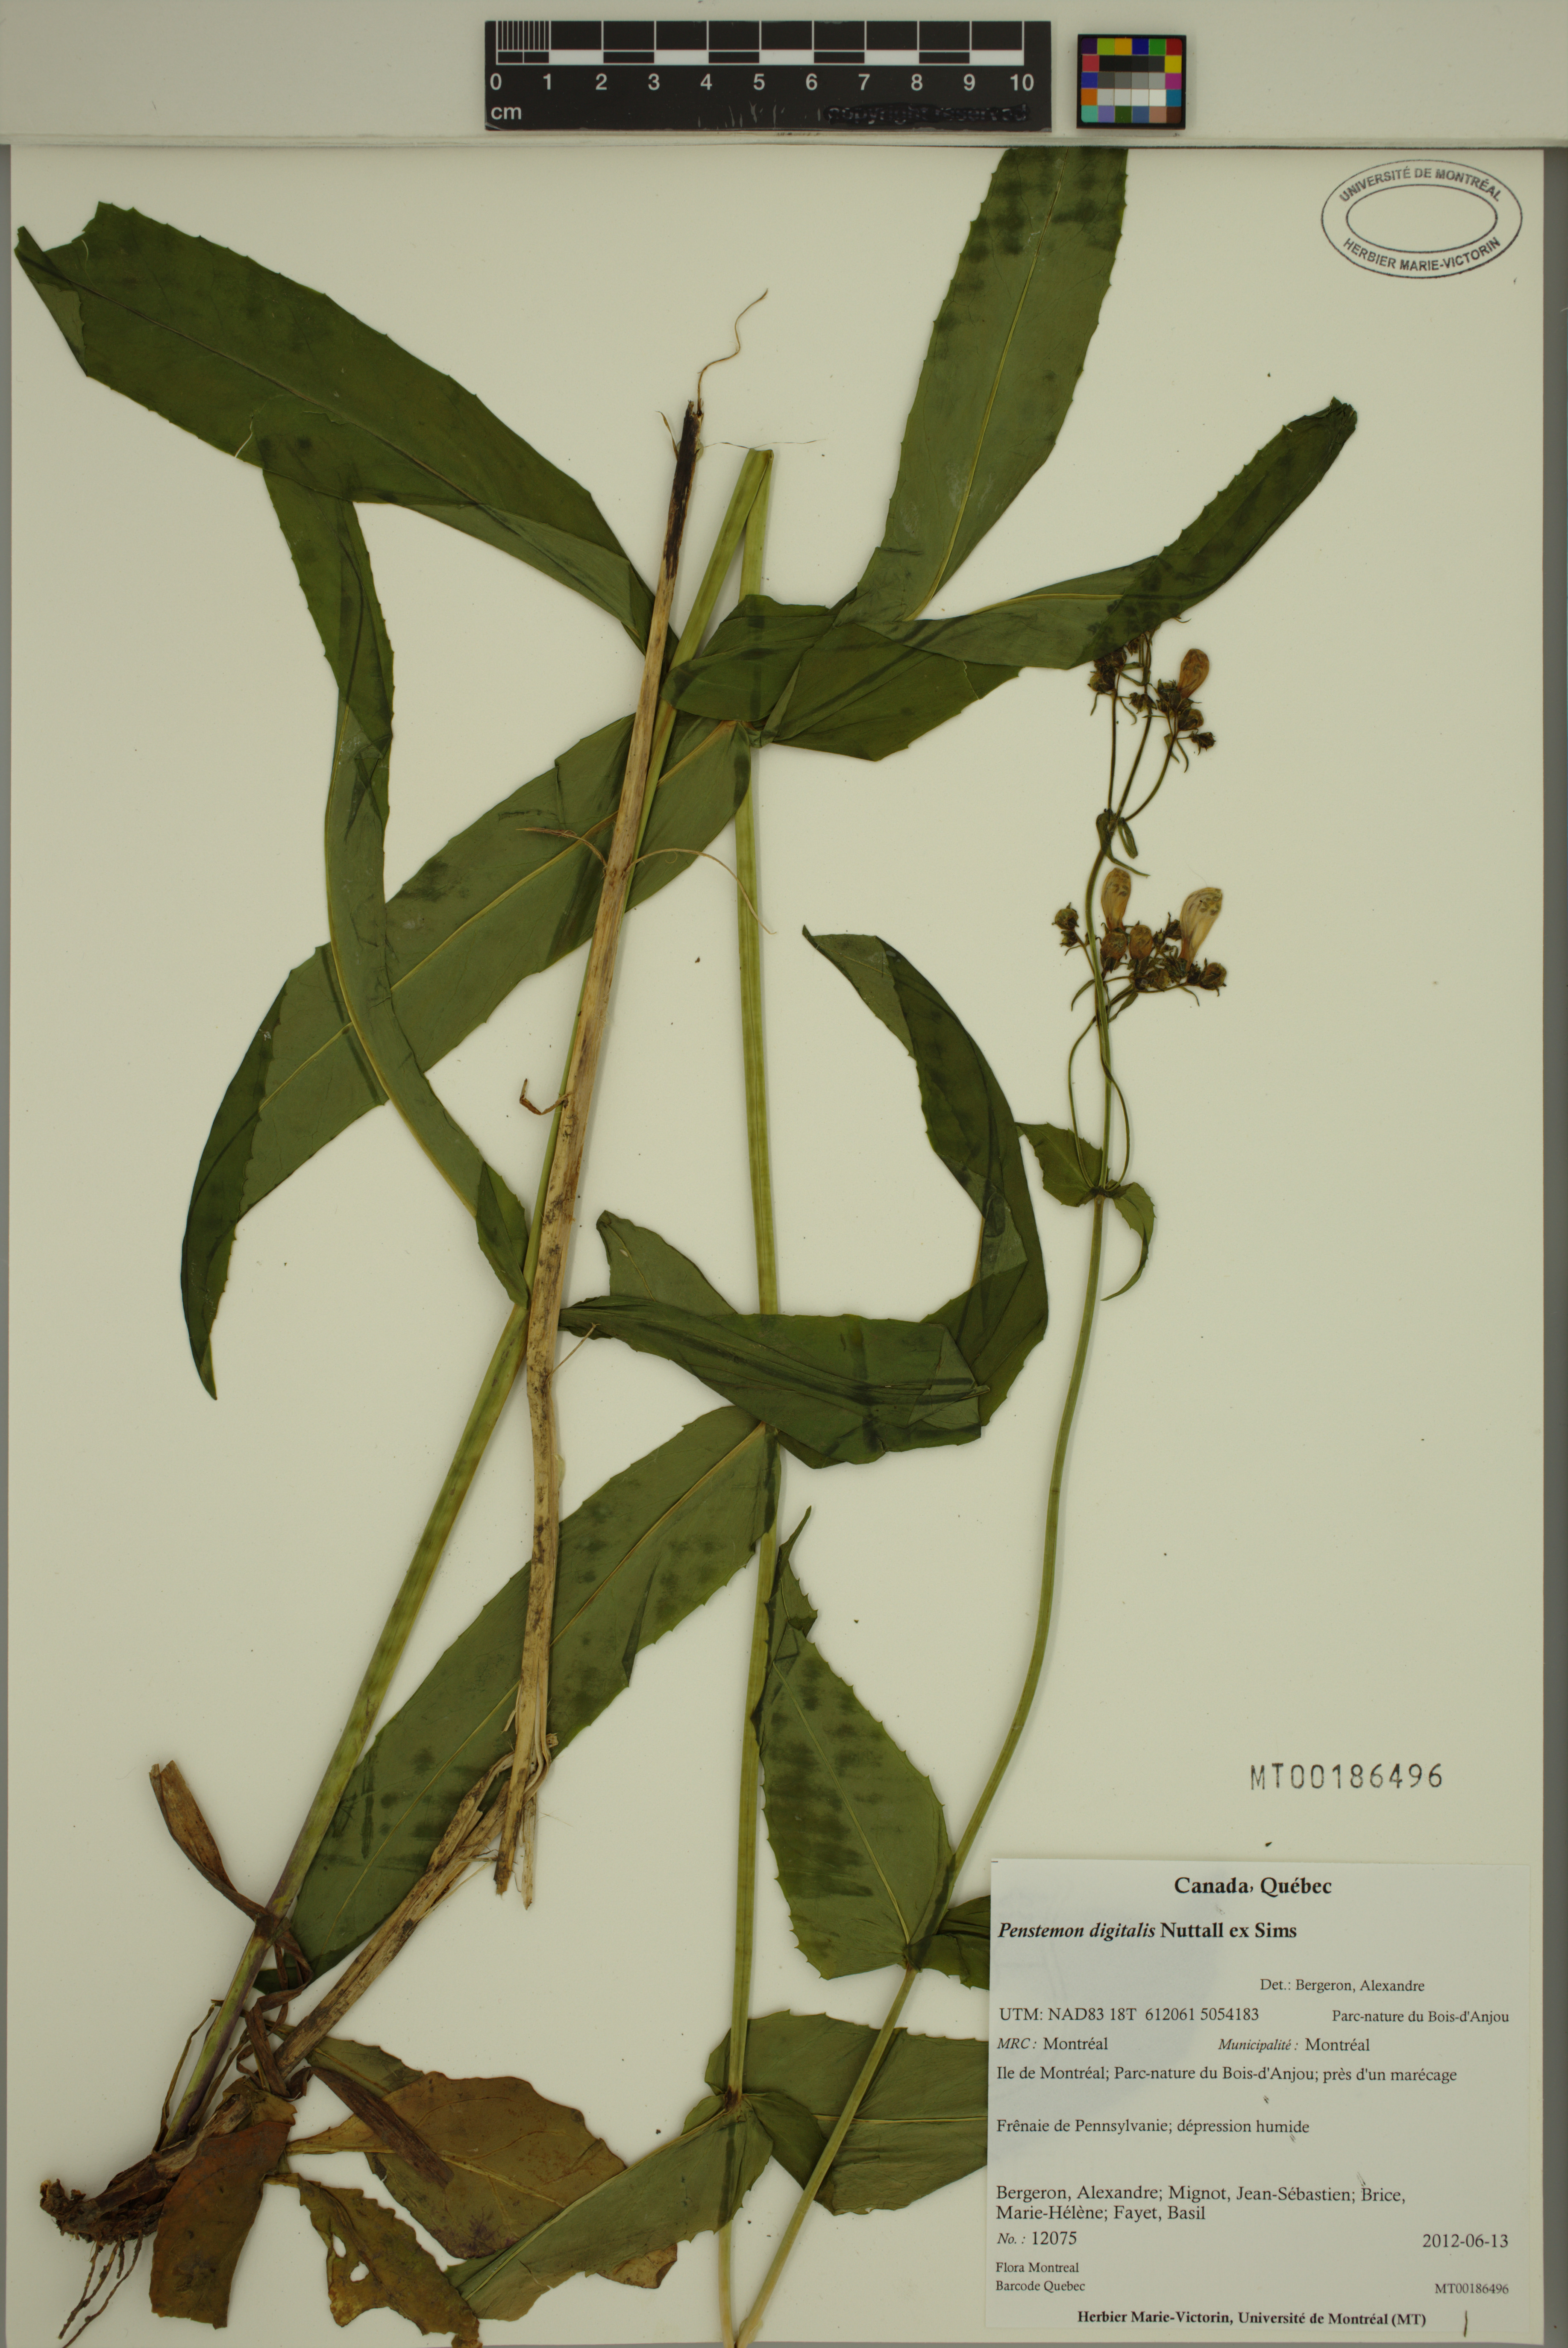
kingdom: Plantae
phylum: Tracheophyta
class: Magnoliopsida
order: Lamiales
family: Plantaginaceae
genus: Penstemon
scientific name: Penstemon digitalis
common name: Foxglove beardtongue
